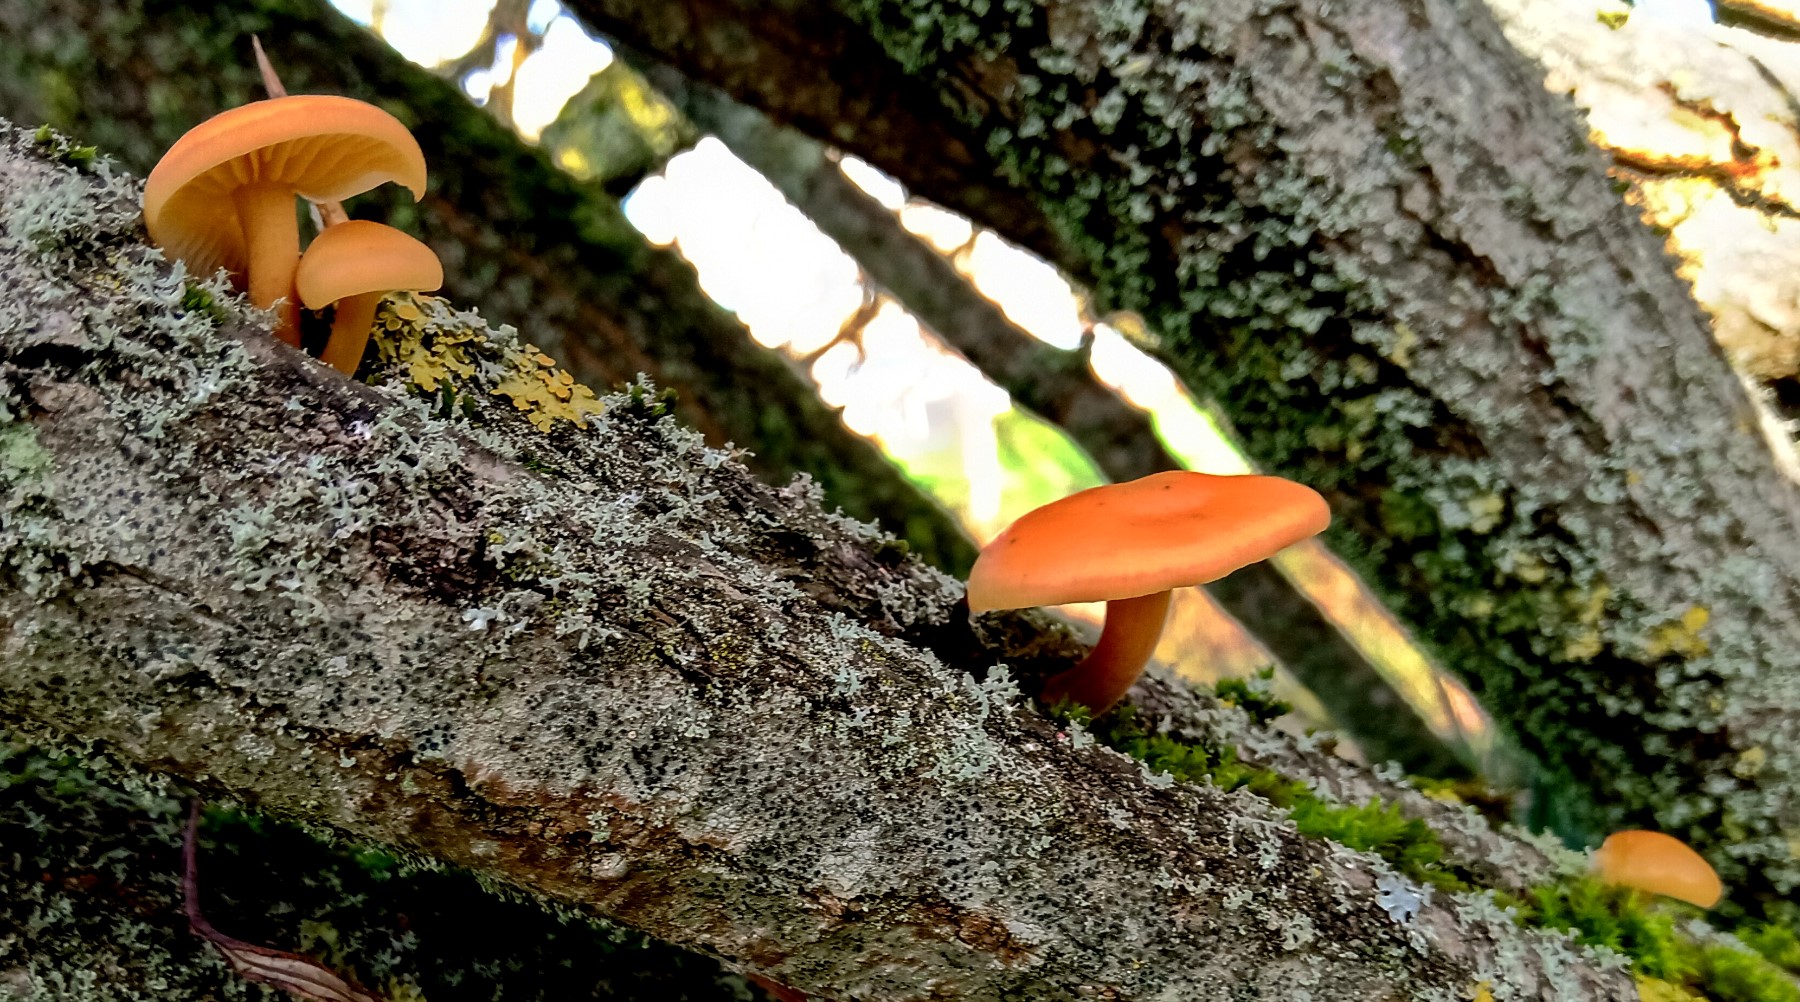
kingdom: Fungi
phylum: Basidiomycota
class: Agaricomycetes
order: Agaricales
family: Physalacriaceae
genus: Flammulina
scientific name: Flammulina velutipes
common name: gul fløjlsfod
